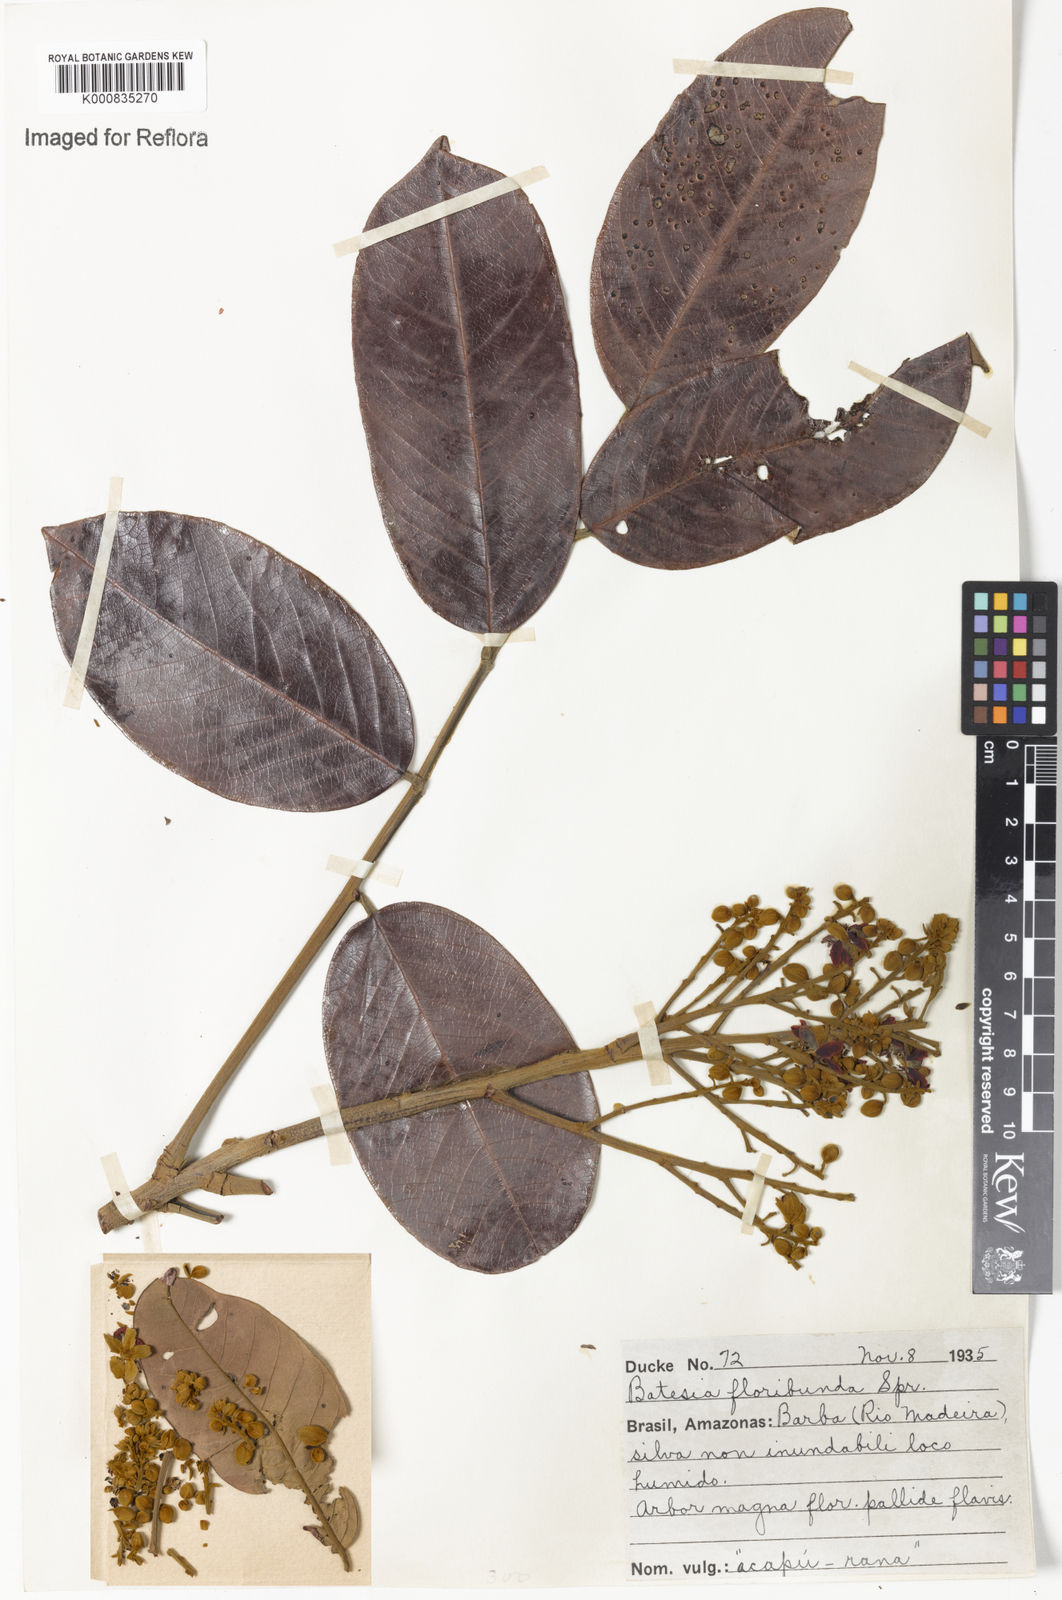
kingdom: Plantae
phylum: Tracheophyta
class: Magnoliopsida
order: Fabales
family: Fabaceae
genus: Batesia
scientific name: Batesia floribunda
